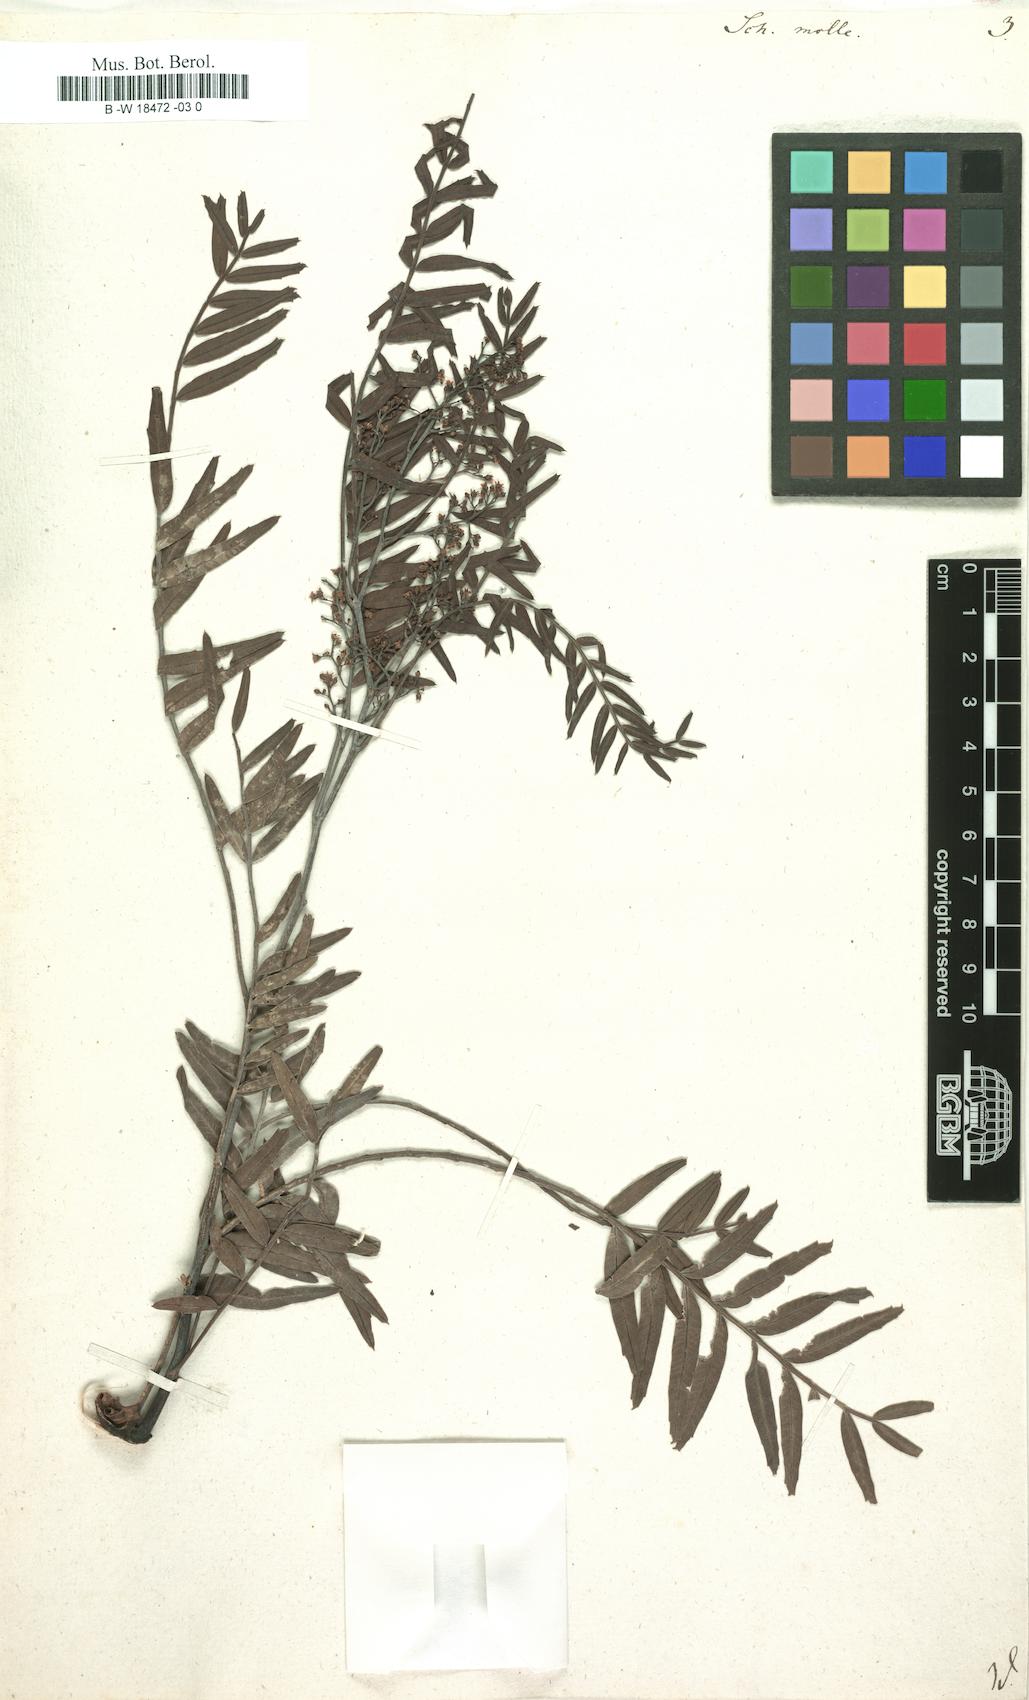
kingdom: Plantae
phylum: Tracheophyta
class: Magnoliopsida
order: Sapindales
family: Anacardiaceae
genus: Schinus
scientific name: Schinus molle
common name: Peruvian peppertree
